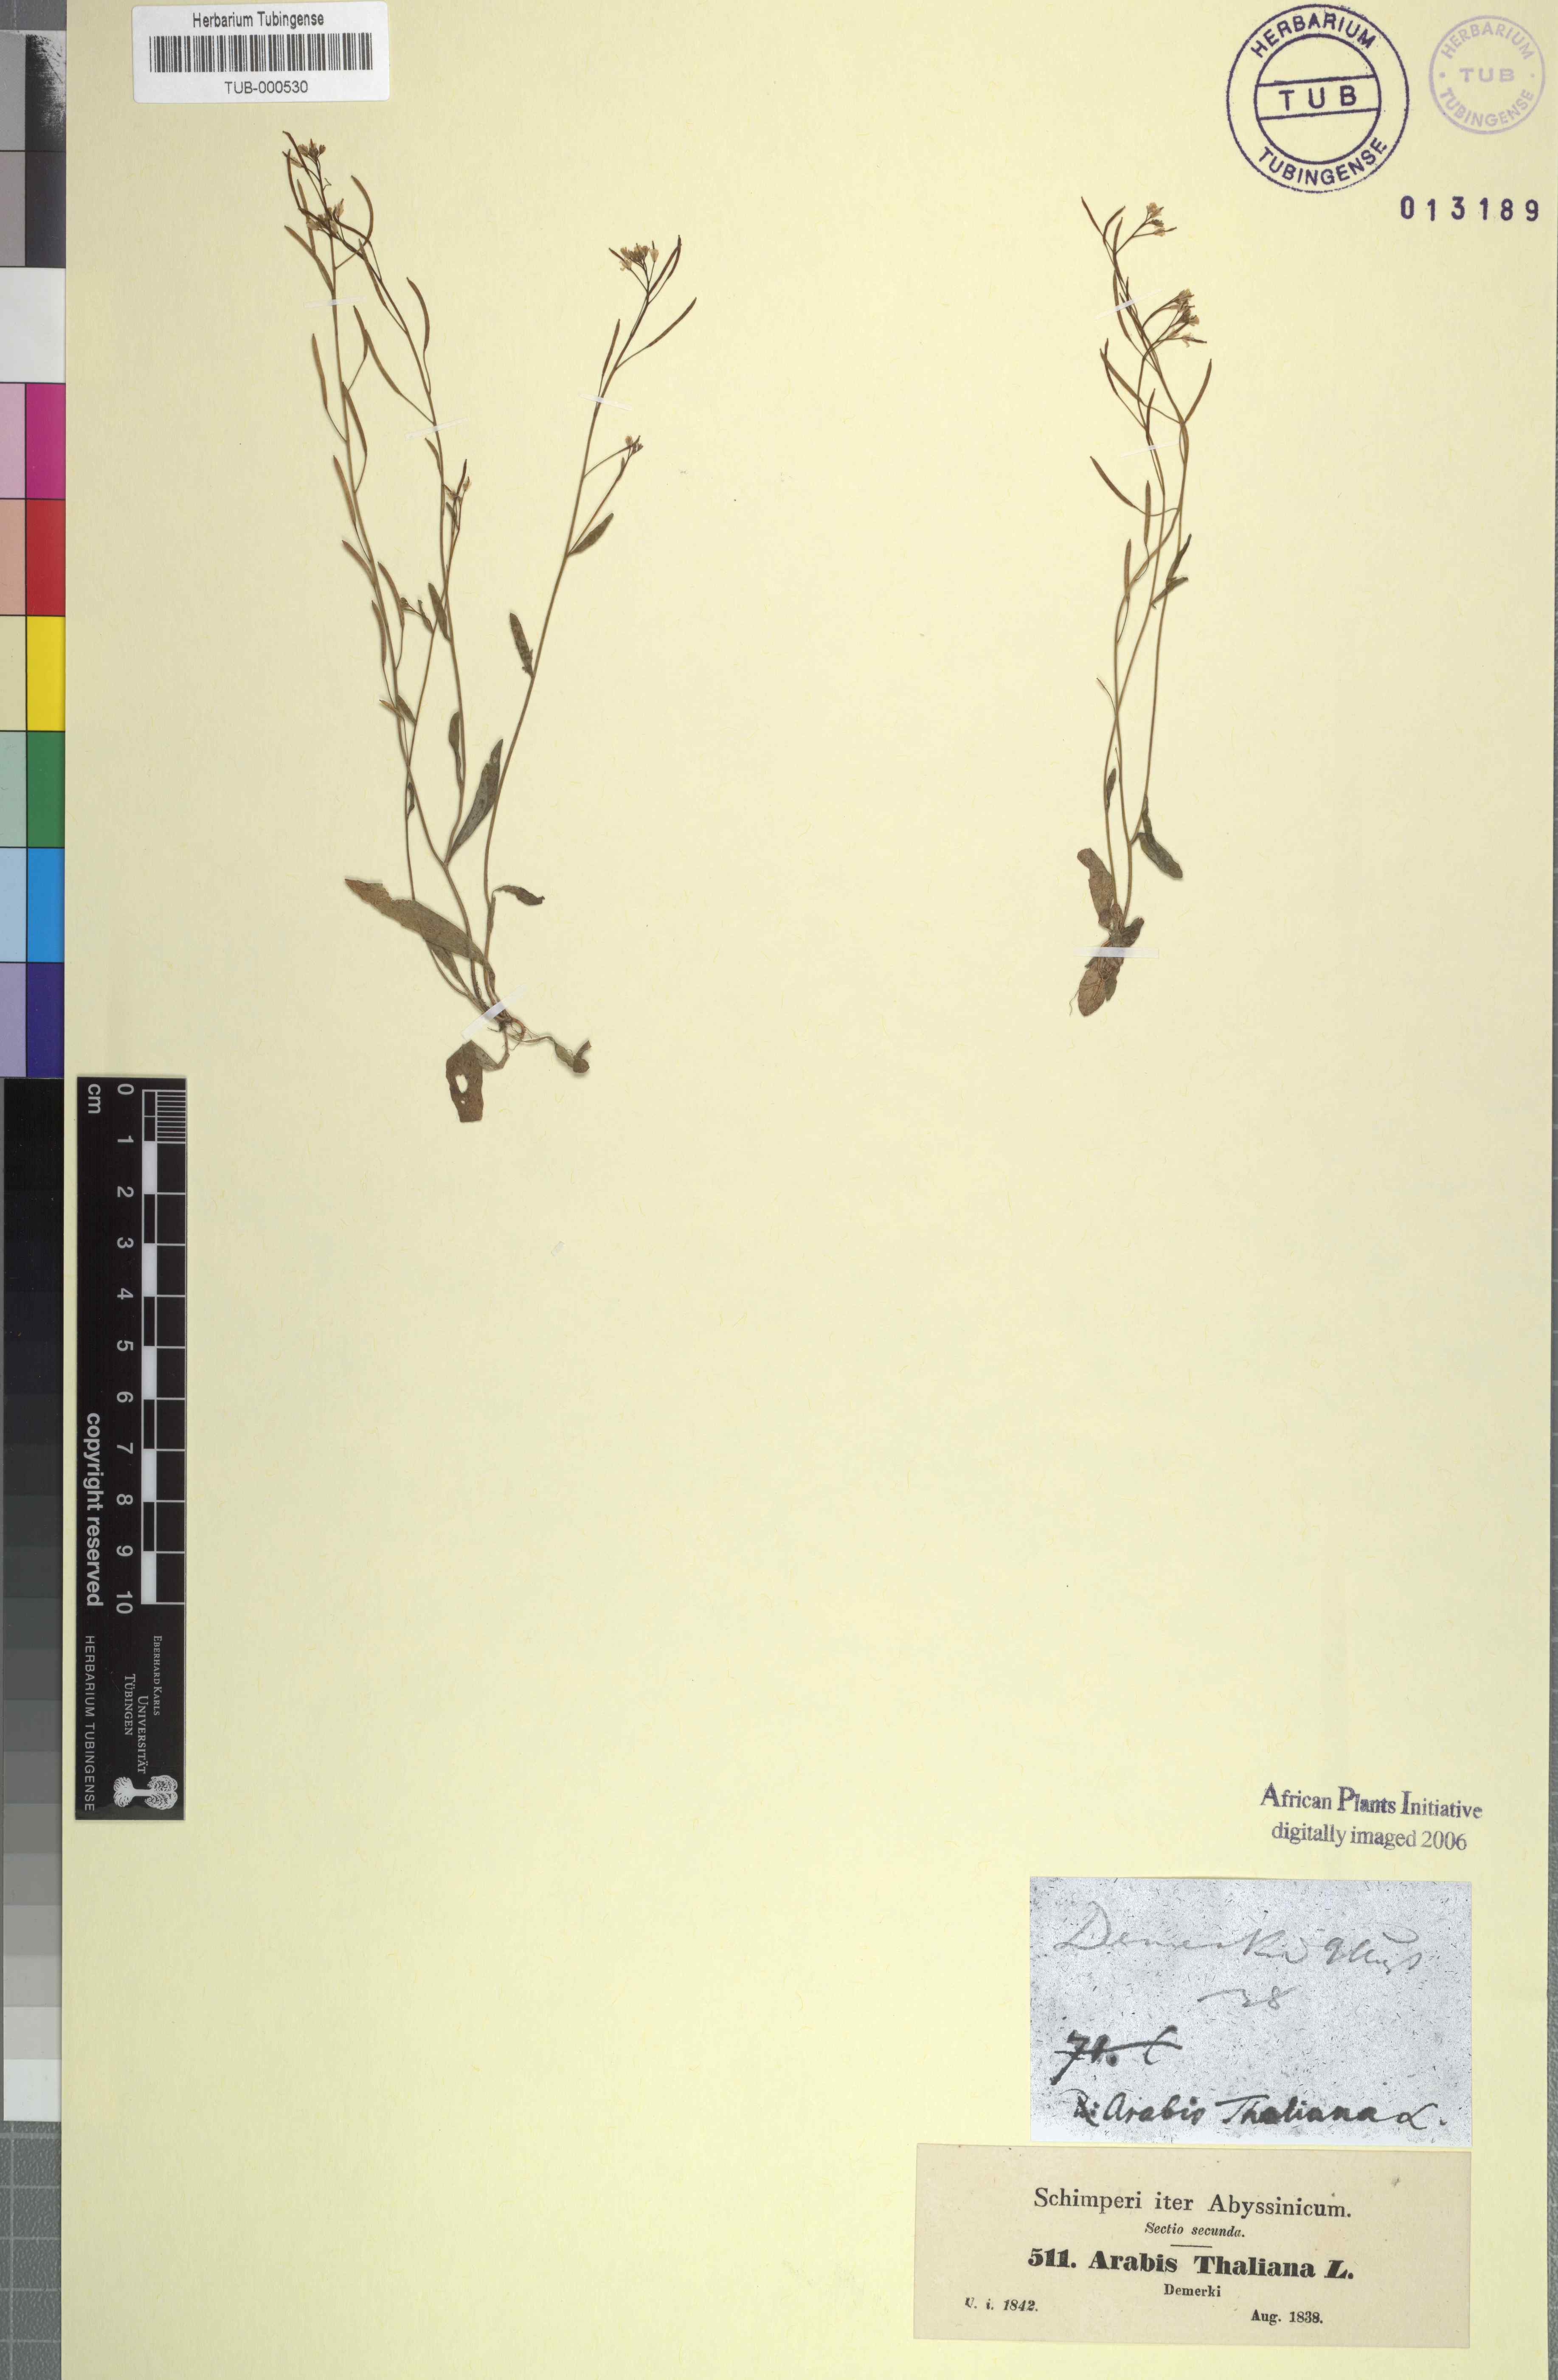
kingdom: Plantae
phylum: Tracheophyta
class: Magnoliopsida
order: Brassicales
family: Brassicaceae
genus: Arabidopsis
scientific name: Arabidopsis thaliana
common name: Thale cress
